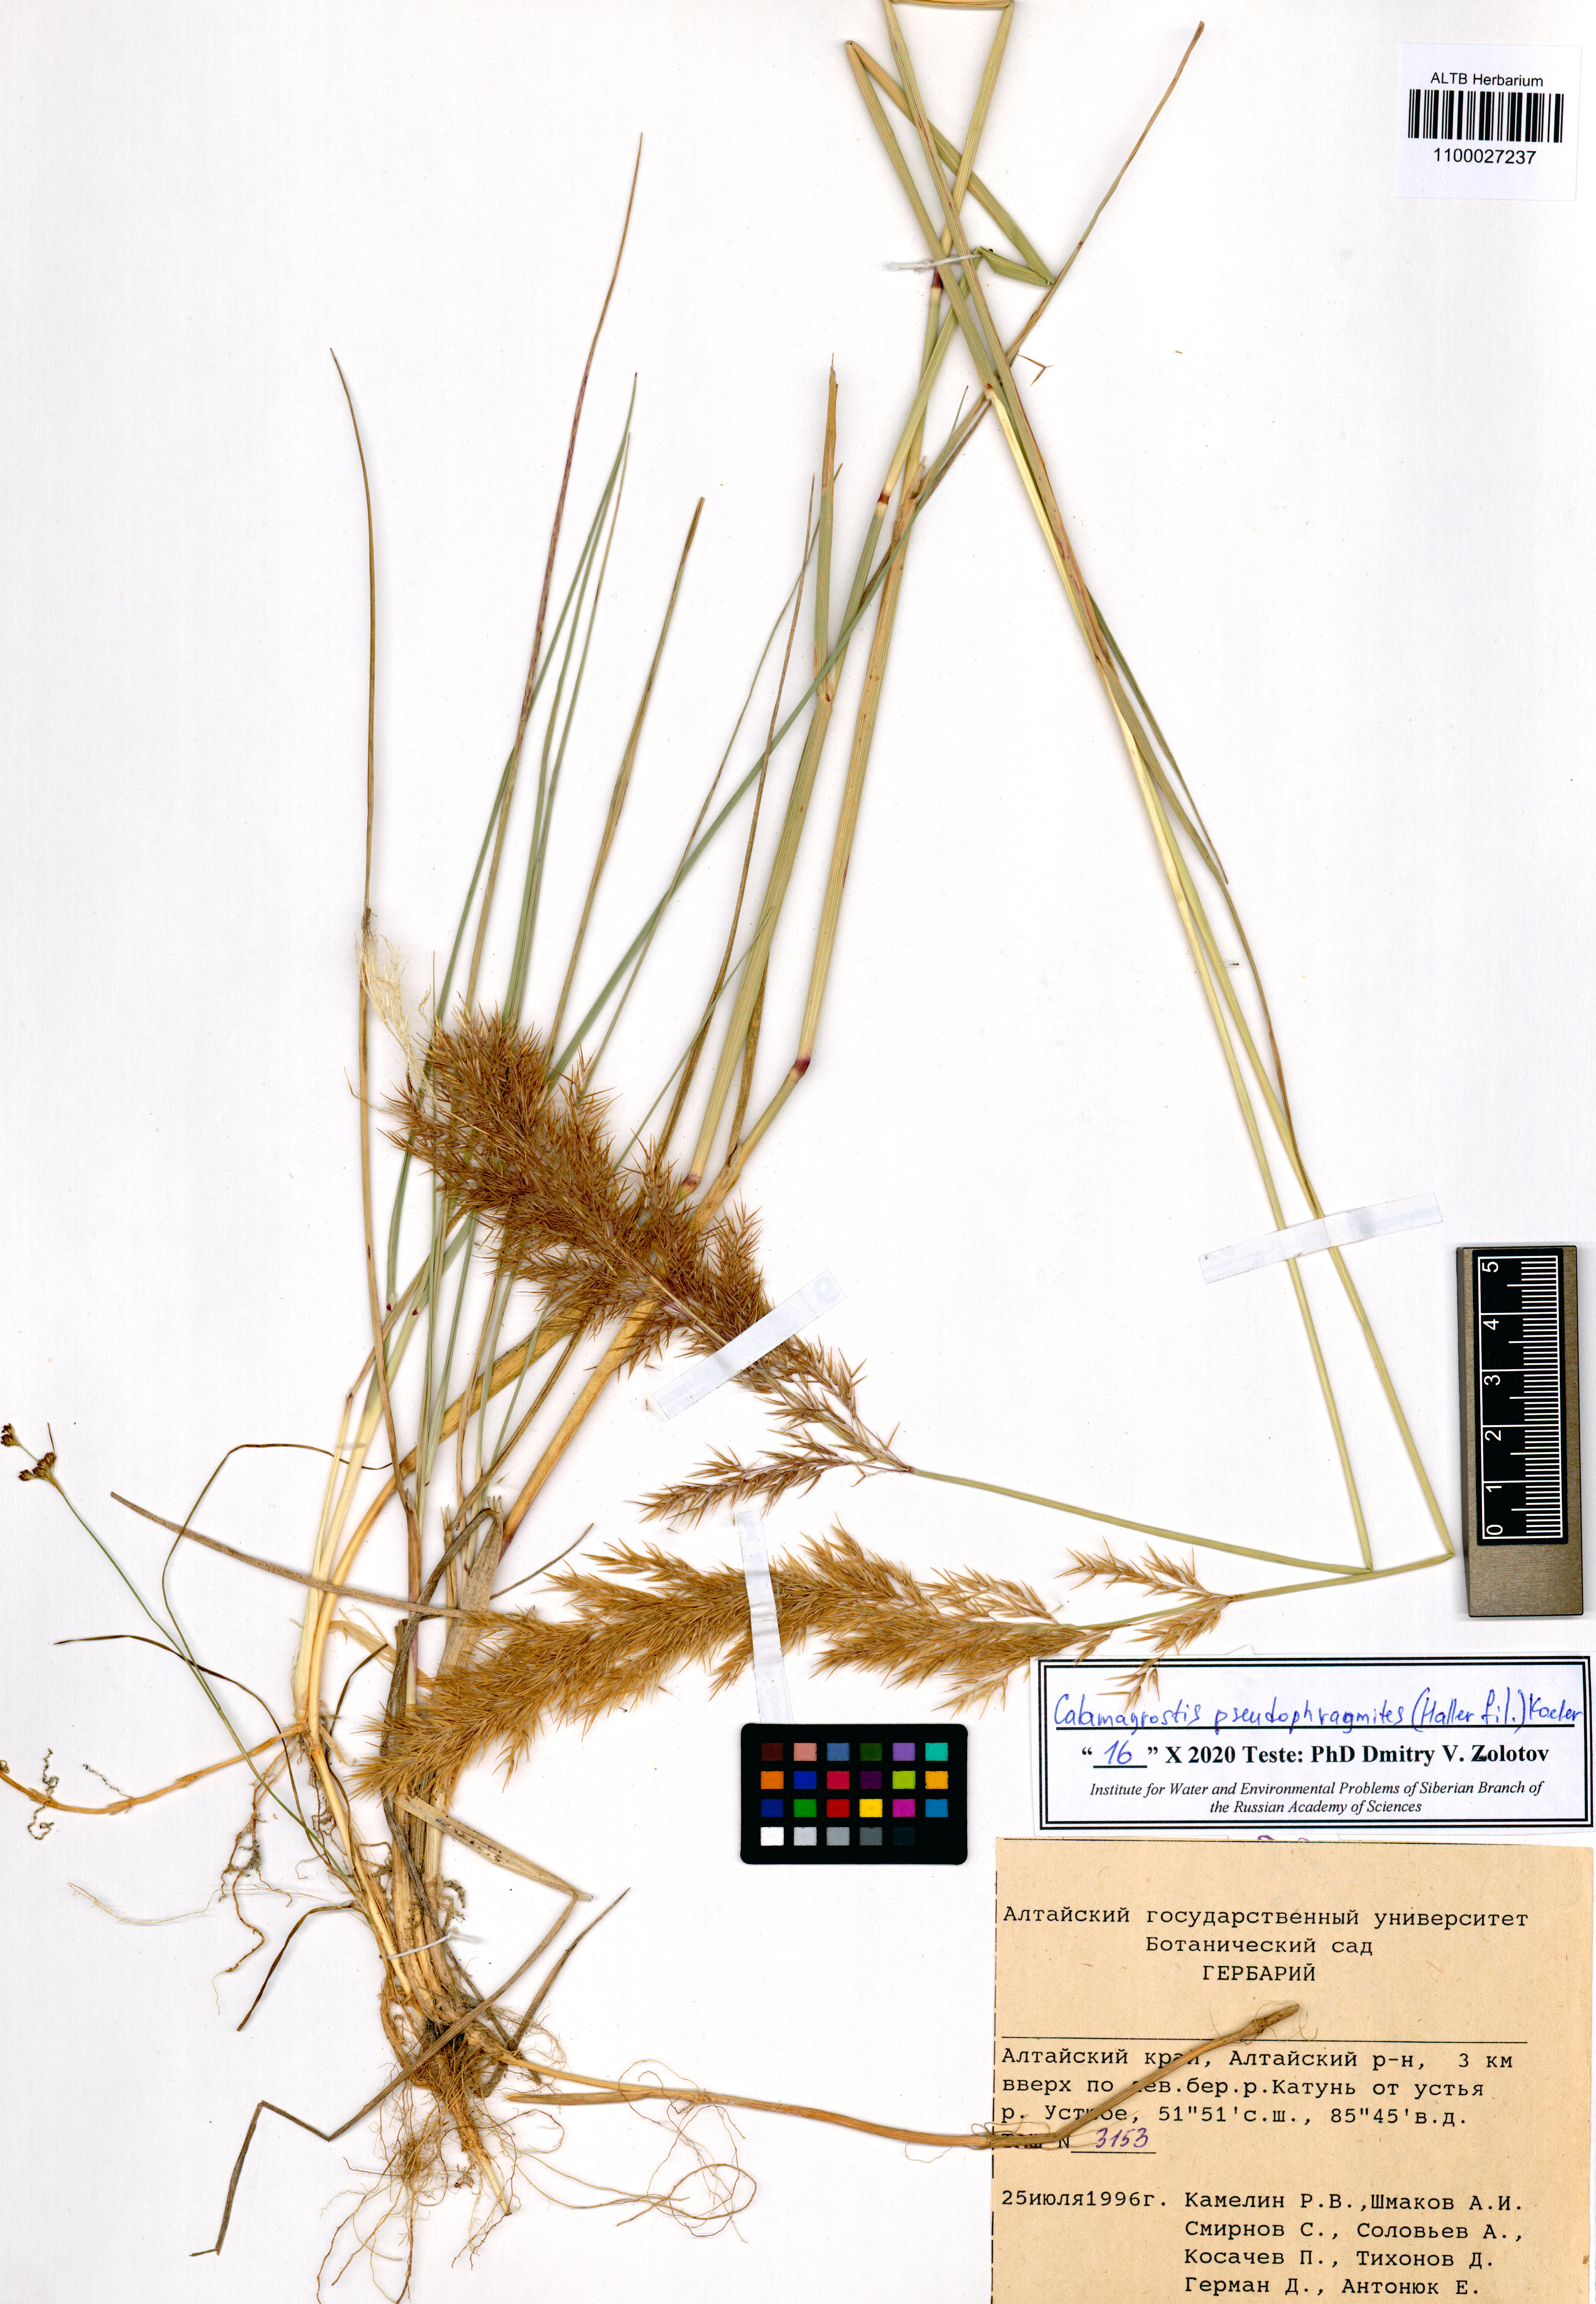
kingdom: Plantae
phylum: Tracheophyta
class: Liliopsida
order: Poales
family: Poaceae
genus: Calamagrostis
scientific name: Calamagrostis pseudophragmites
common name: Coastal small-reed
